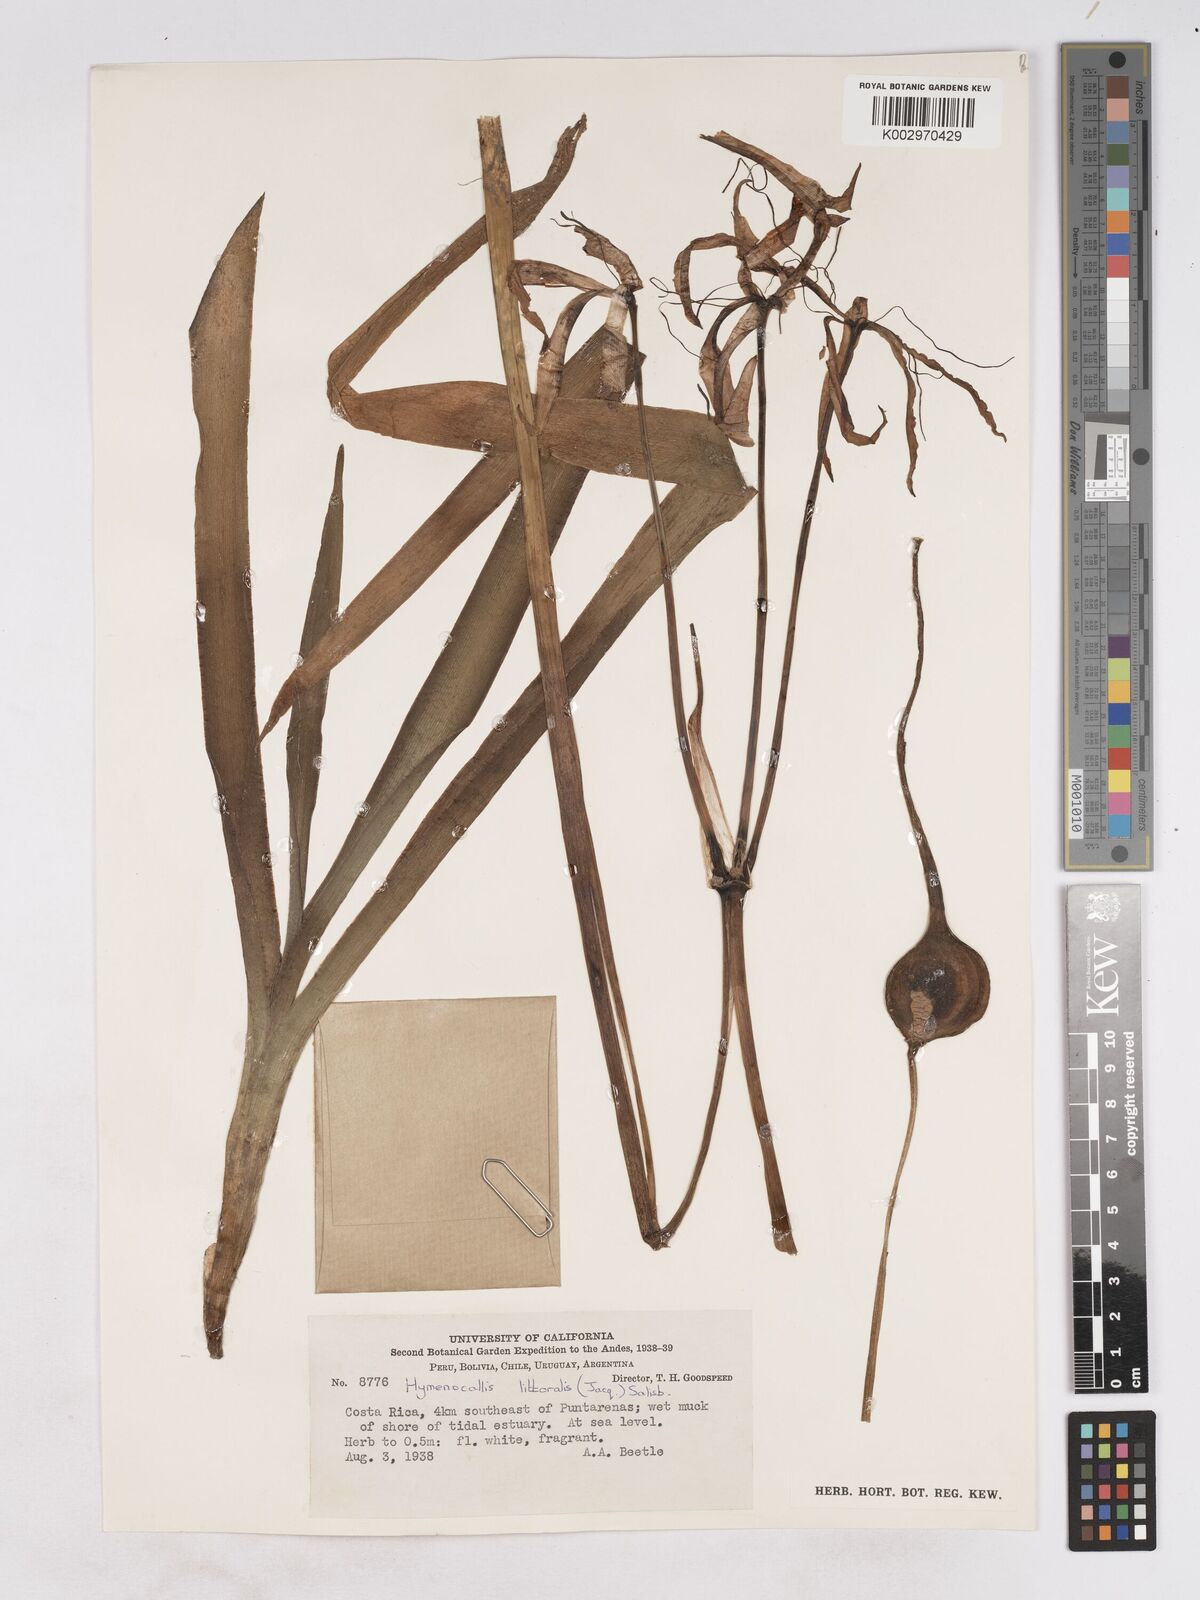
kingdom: Plantae
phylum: Tracheophyta
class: Liliopsida
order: Asparagales
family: Amaryllidaceae
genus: Hymenocallis
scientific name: Hymenocallis littoralis
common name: Beach spiderlily
